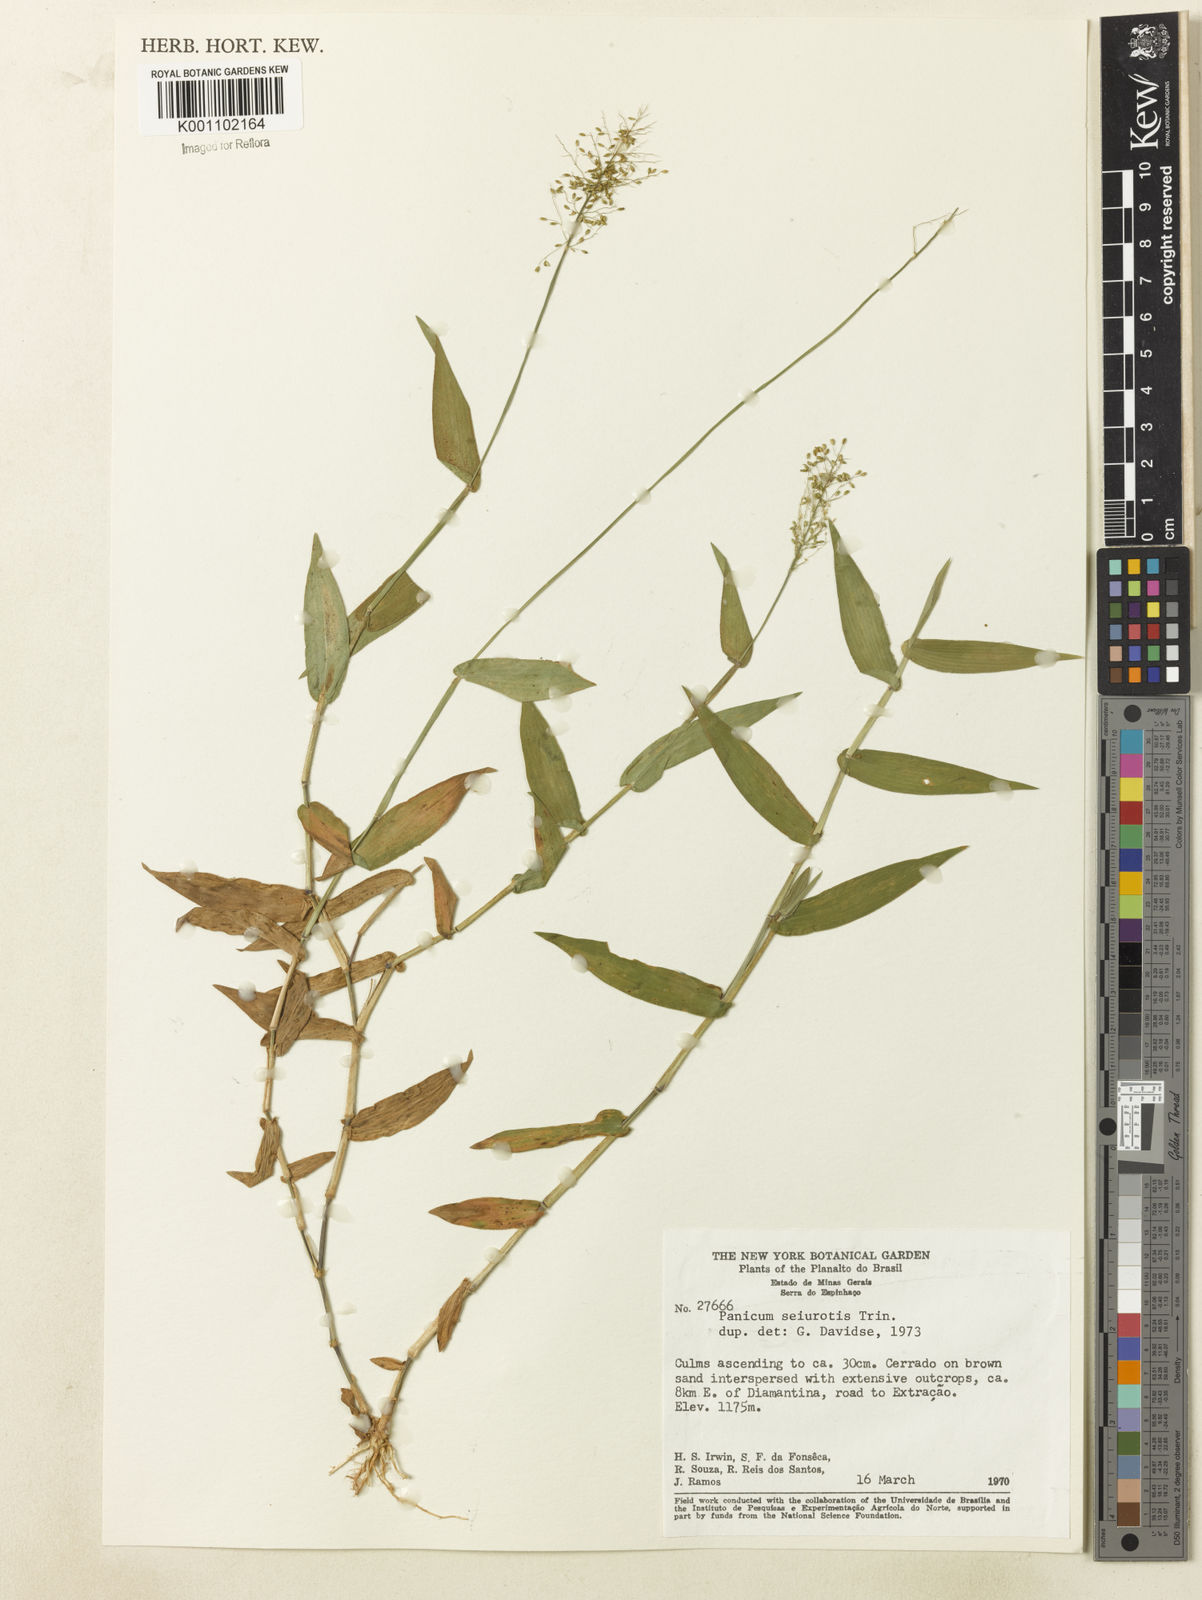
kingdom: Plantae
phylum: Tracheophyta
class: Liliopsida
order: Poales
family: Poaceae
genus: Dichanthelium
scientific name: Dichanthelium sciurotoides
